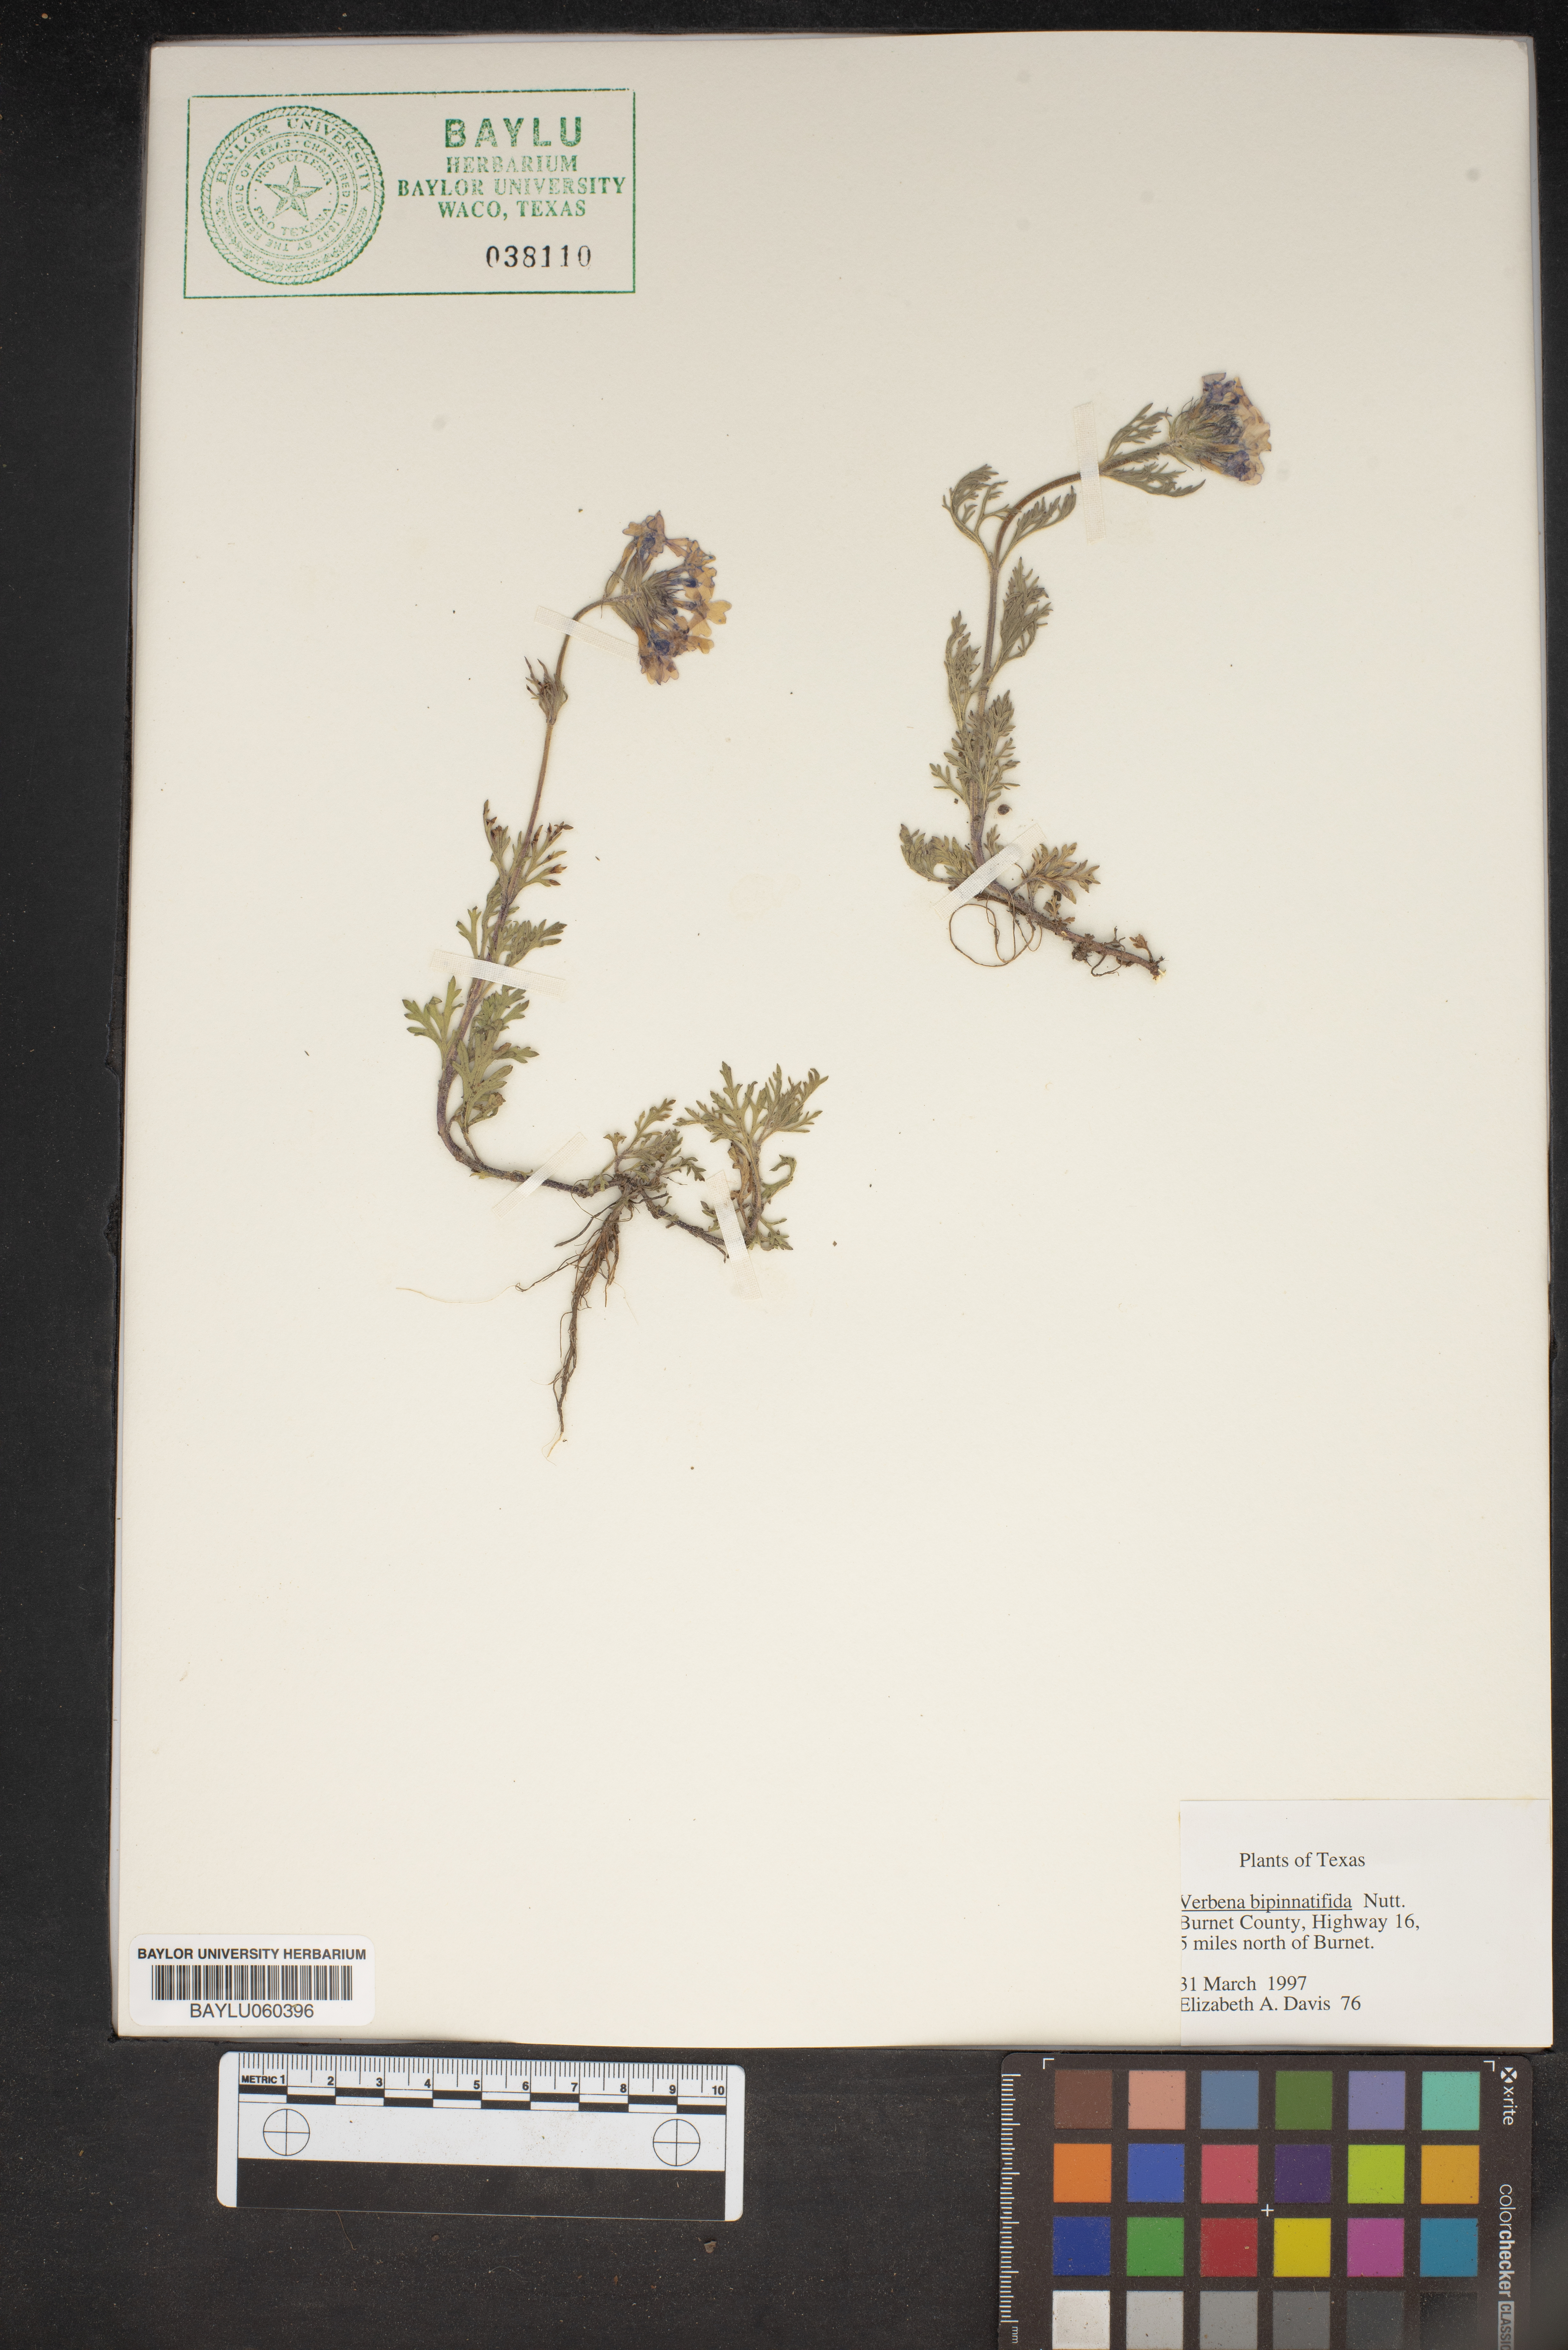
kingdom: Plantae
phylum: Tracheophyta
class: Magnoliopsida
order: Lamiales
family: Verbenaceae
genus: Verbena
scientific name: Verbena bipinnatifida
